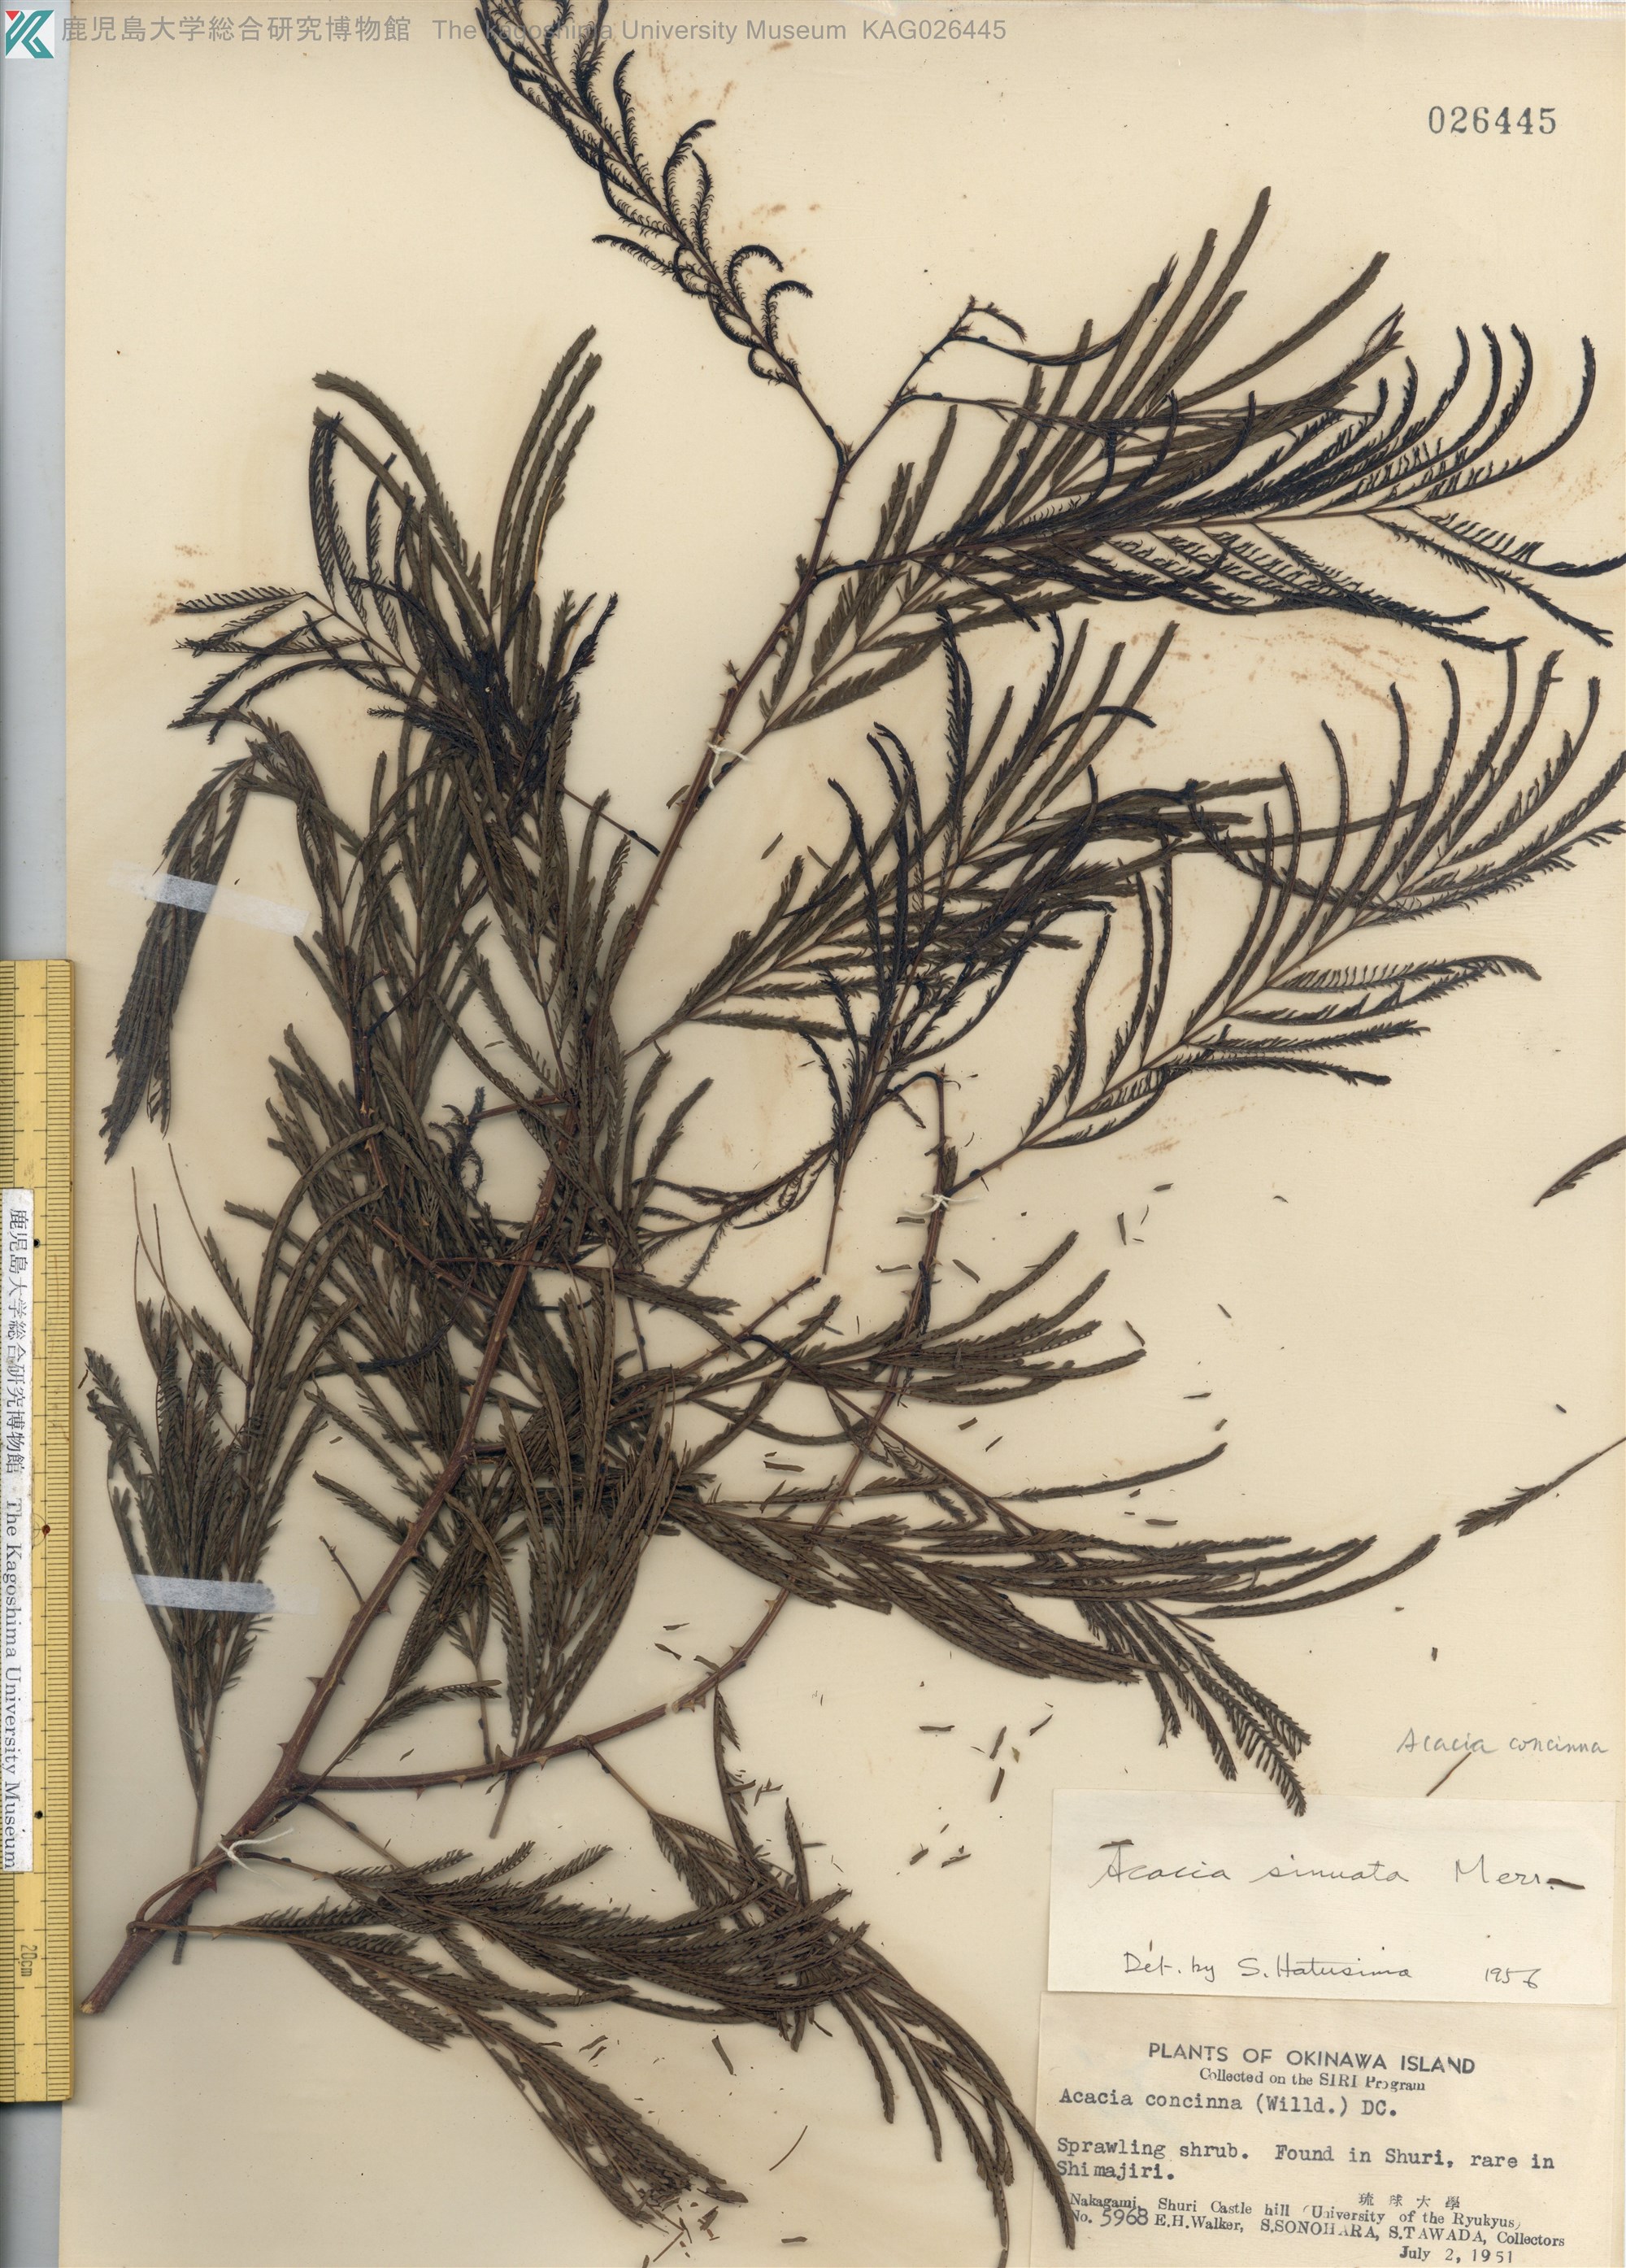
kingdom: Plantae
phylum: Tracheophyta
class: Magnoliopsida
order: Fabales
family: Fabaceae
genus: Senegalia
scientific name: Senegalia rugata
